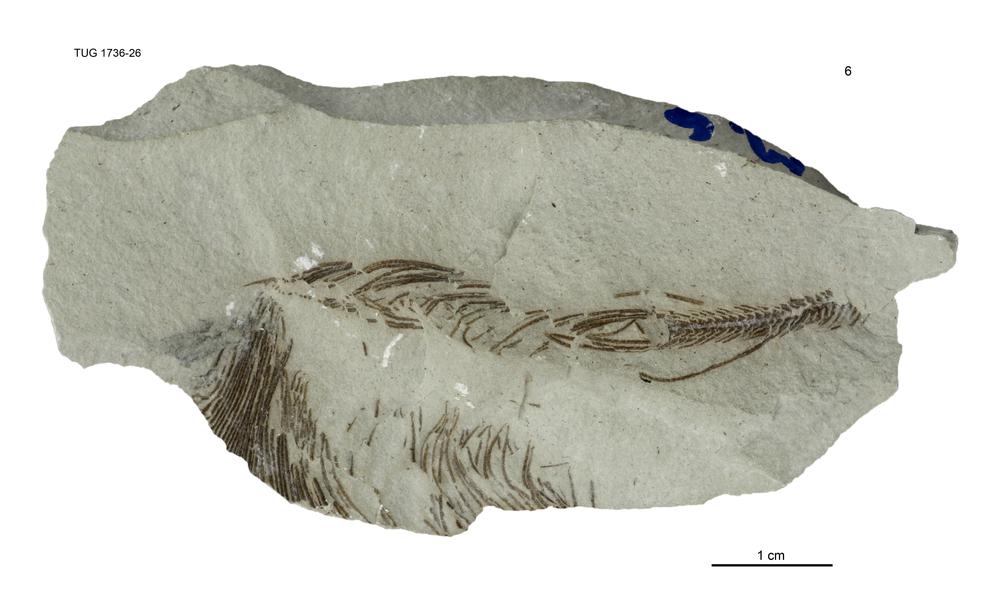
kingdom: Animalia
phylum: Echinodermata
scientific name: Echinodermata
